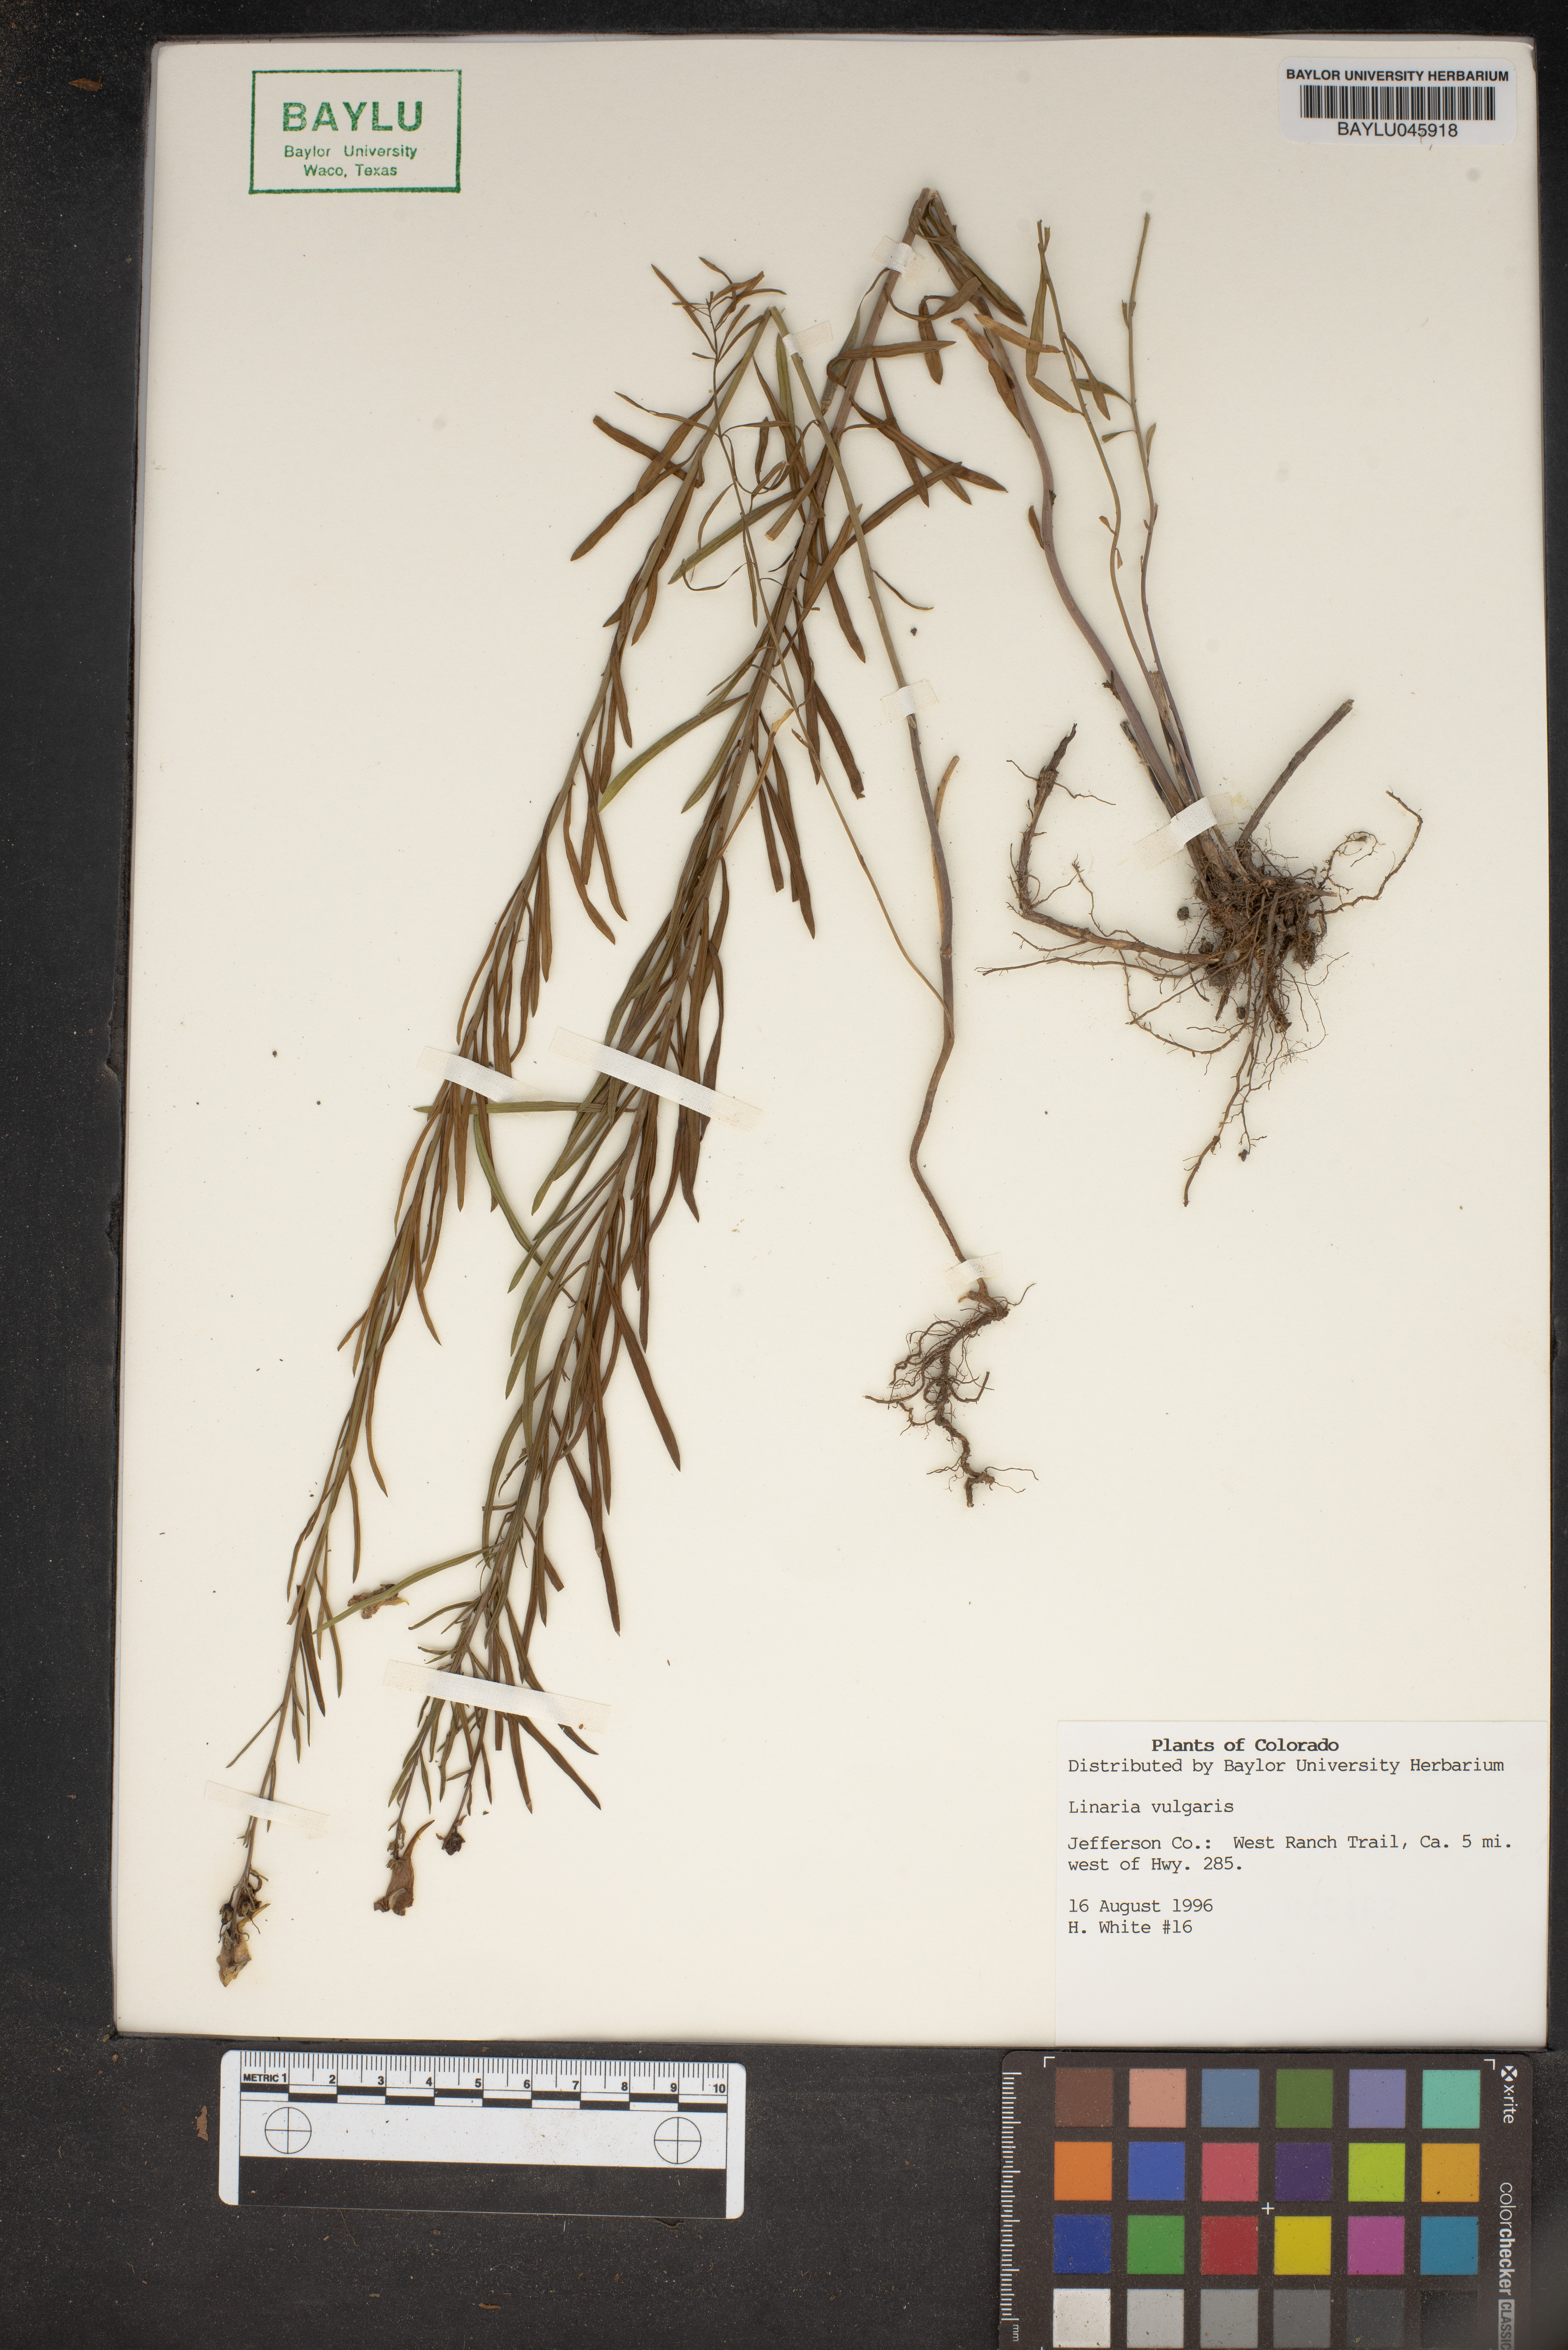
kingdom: Plantae
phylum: Tracheophyta
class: Magnoliopsida
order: Lamiales
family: Plantaginaceae
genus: Linaria
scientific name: Linaria vulgaris
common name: Butter and eggs
